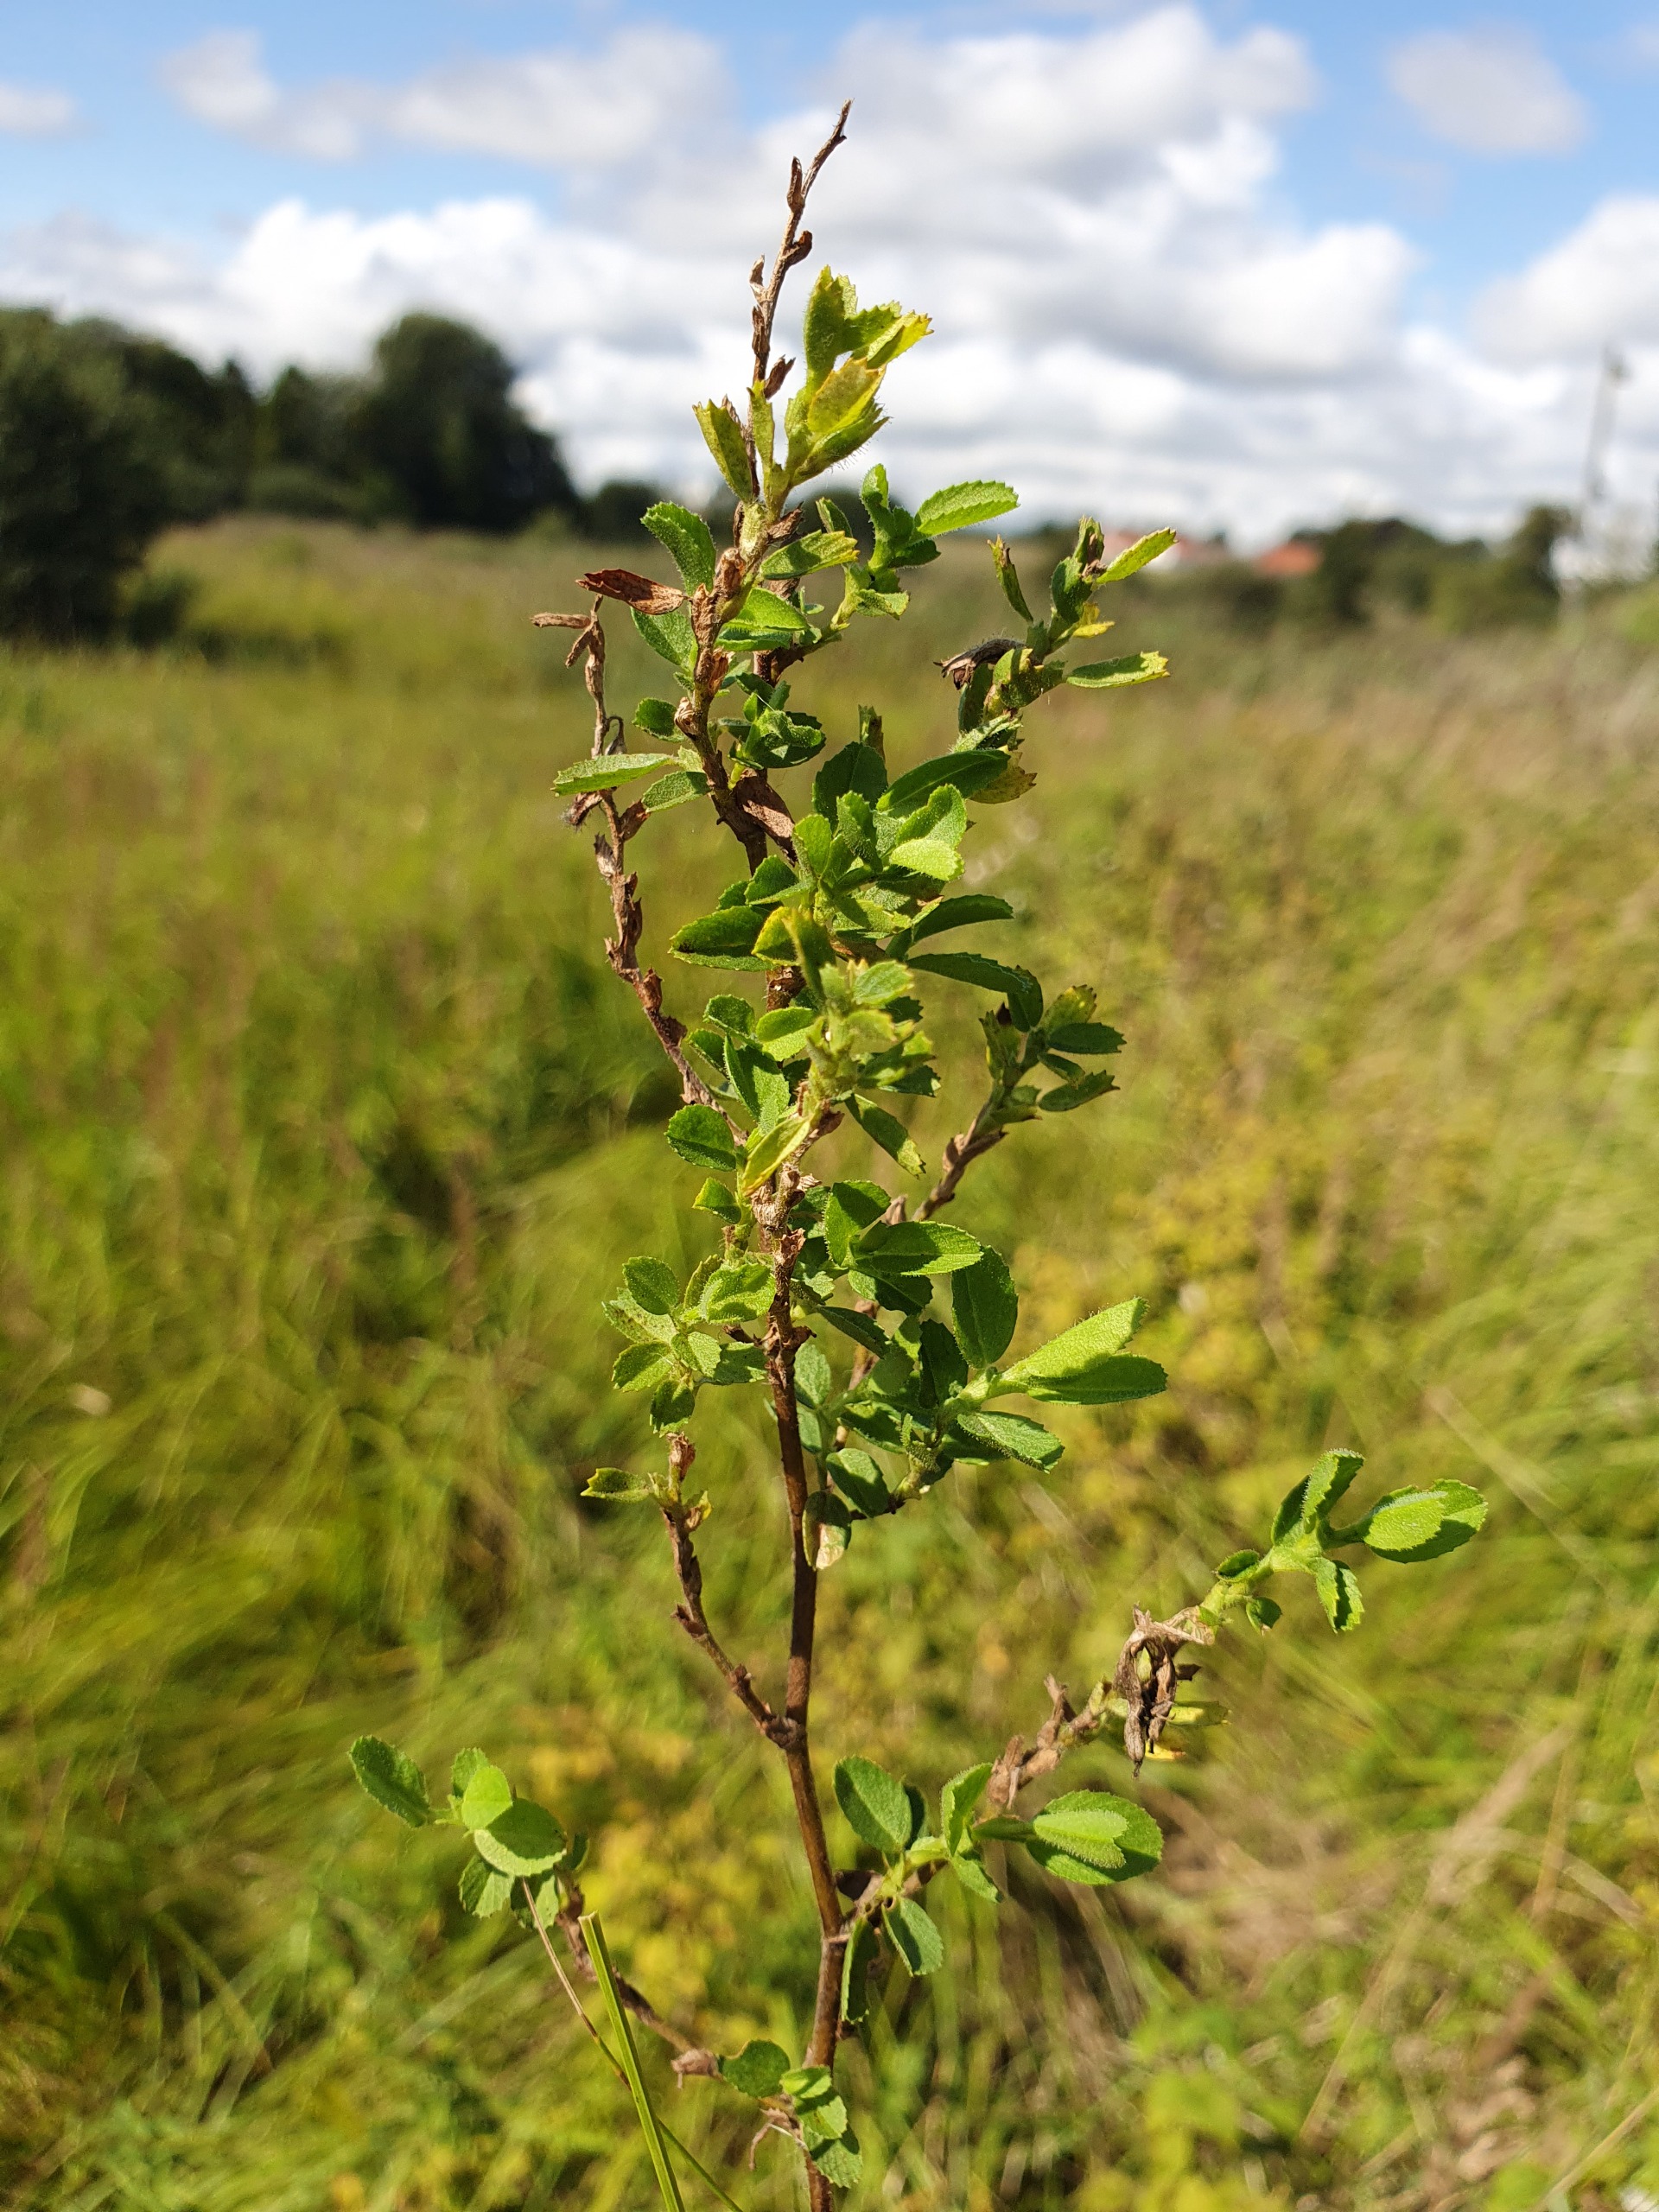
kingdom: Plantae
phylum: Tracheophyta
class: Magnoliopsida
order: Fabales
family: Fabaceae
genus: Ononis
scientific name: Ononis spinosa
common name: Mark-krageklo
